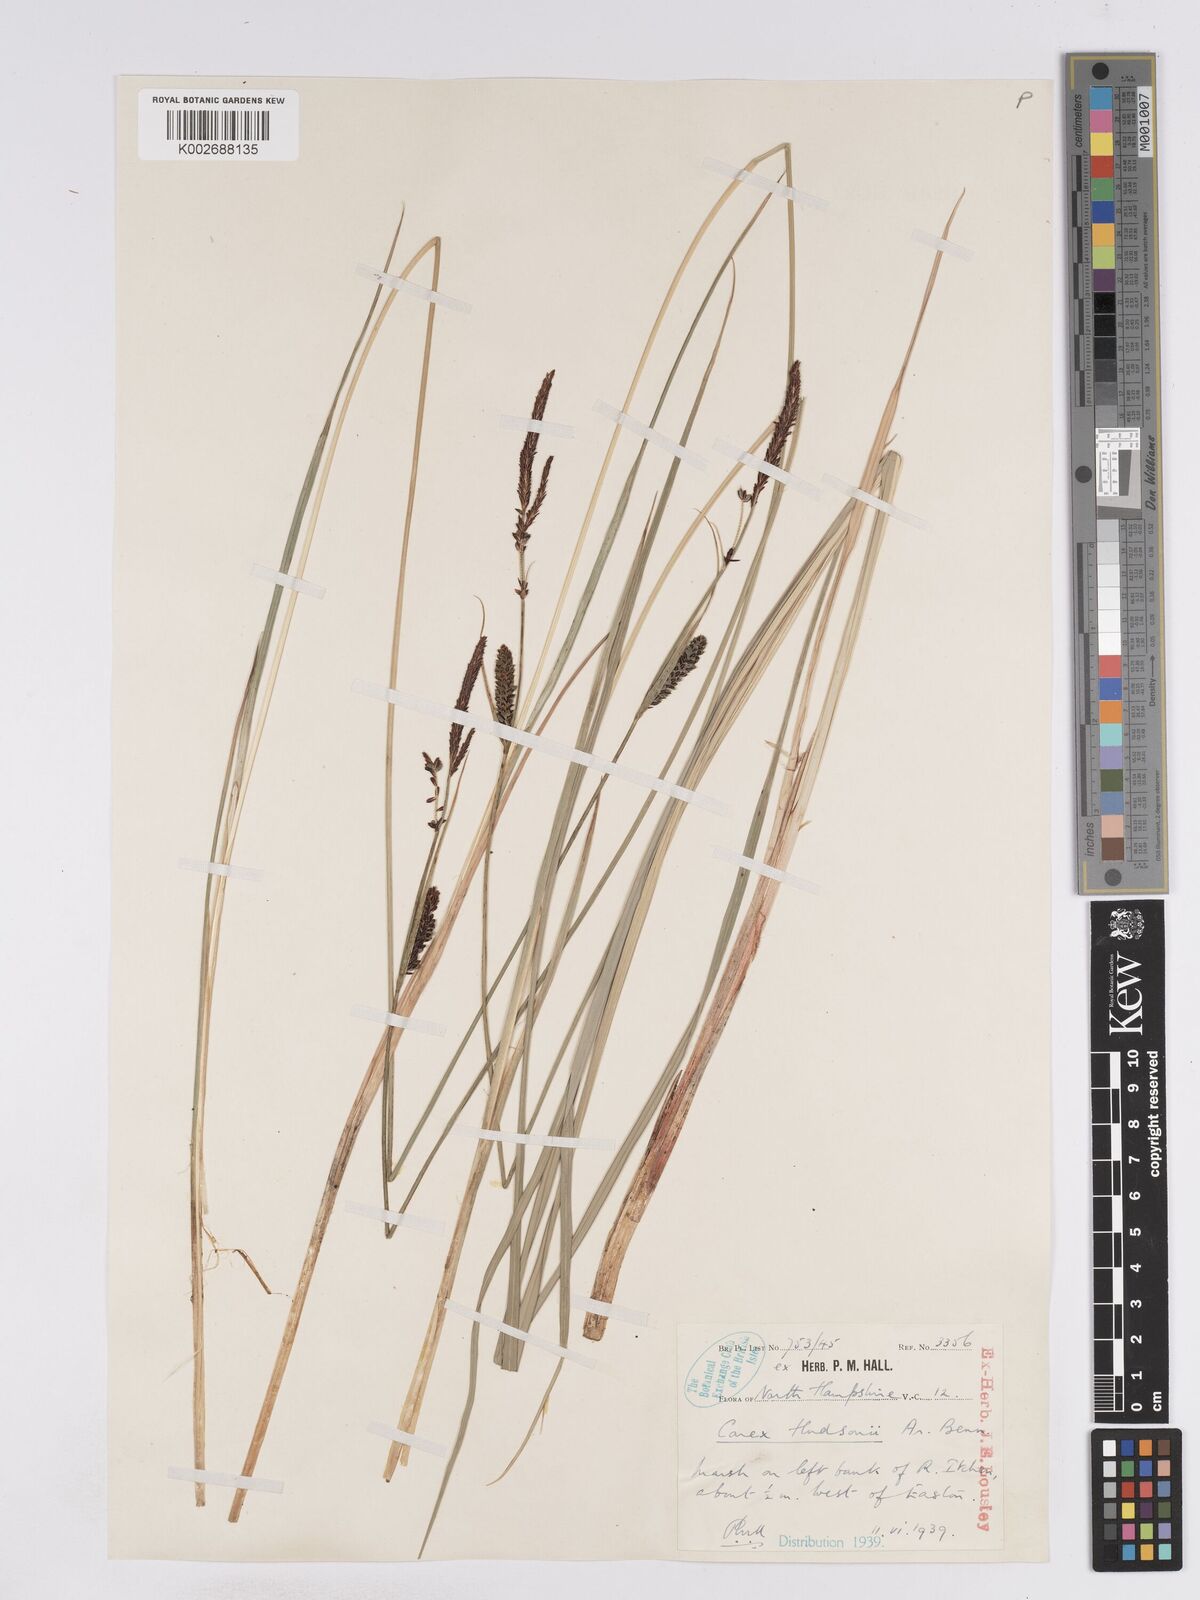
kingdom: Plantae
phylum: Tracheophyta
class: Liliopsida
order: Poales
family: Cyperaceae
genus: Carex
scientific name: Carex elata
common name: Tufted sedge
